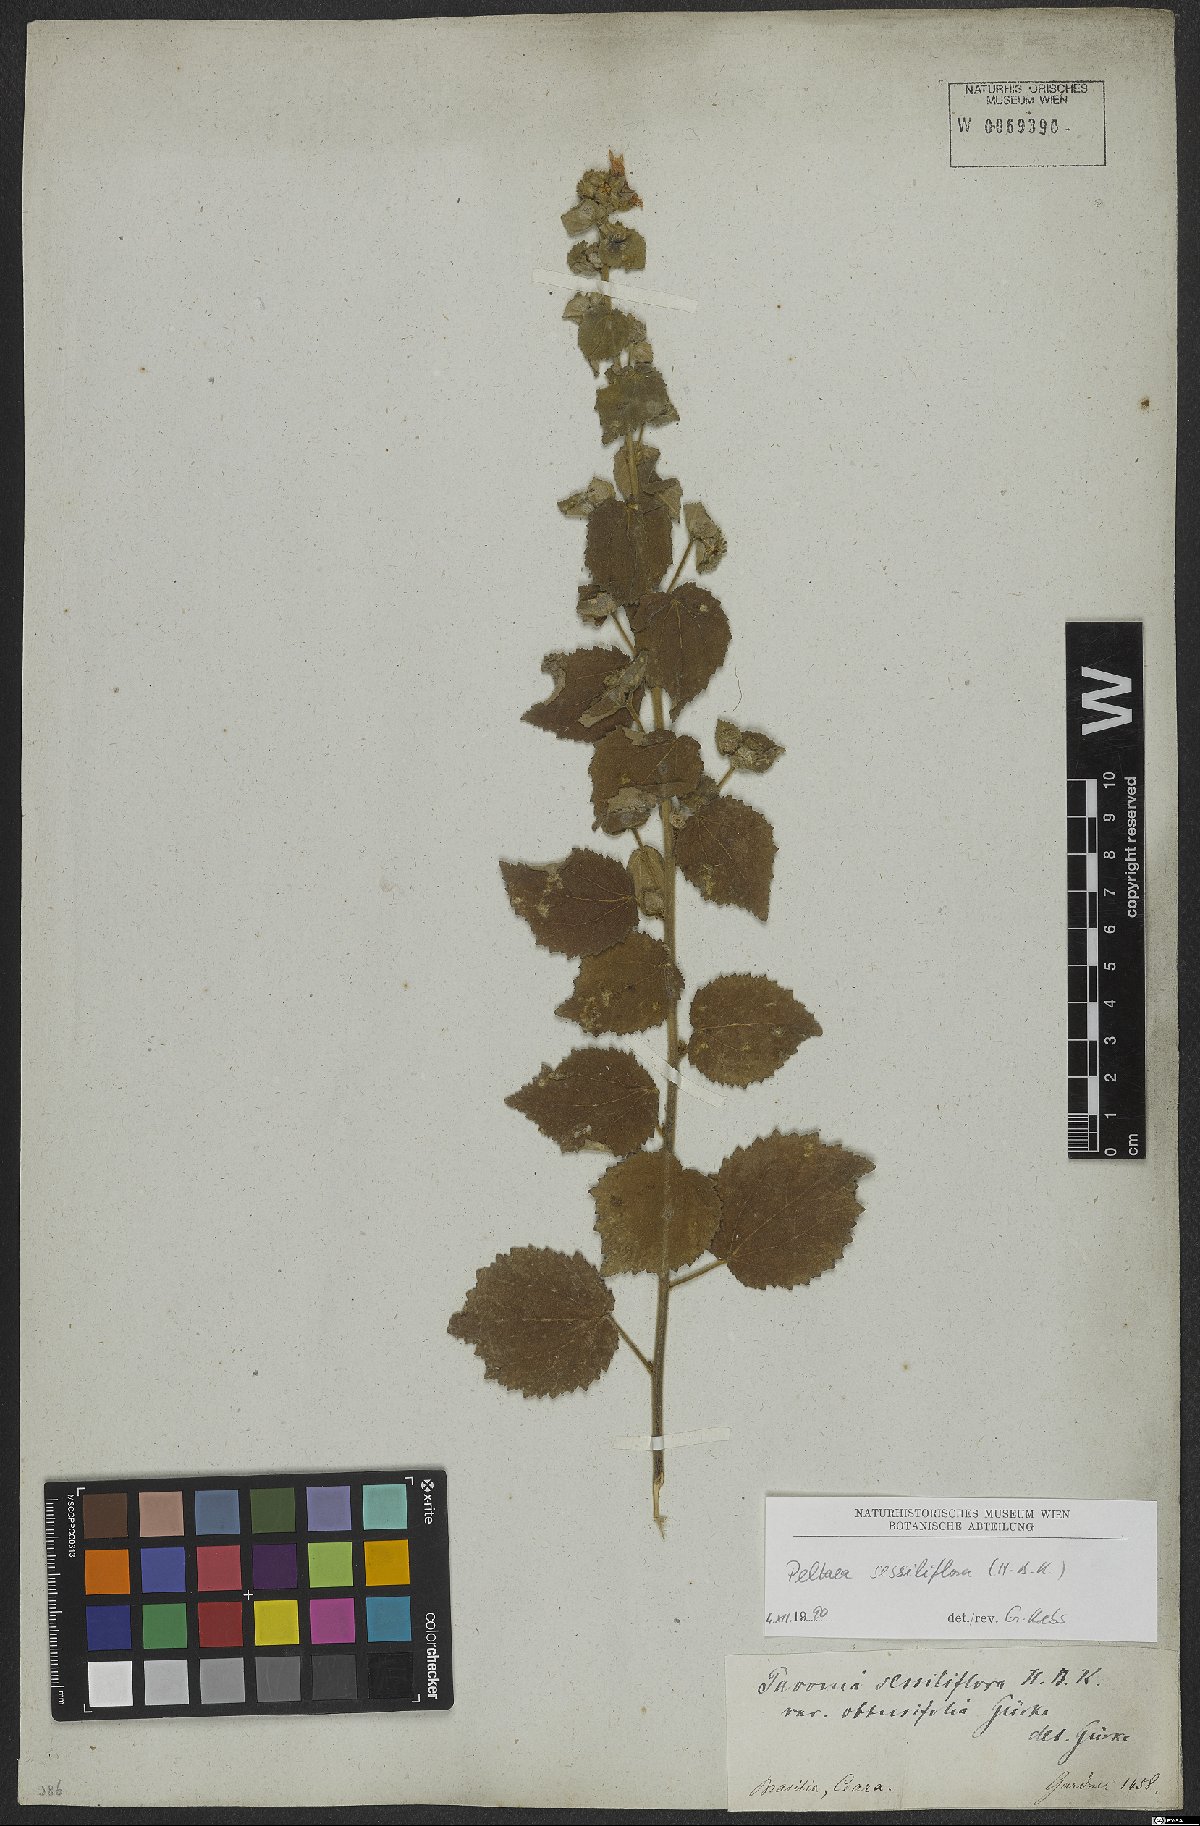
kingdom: Plantae
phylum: Tracheophyta
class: Magnoliopsida
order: Malvales
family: Malvaceae
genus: Peltaea
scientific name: Peltaea sessiliflora
